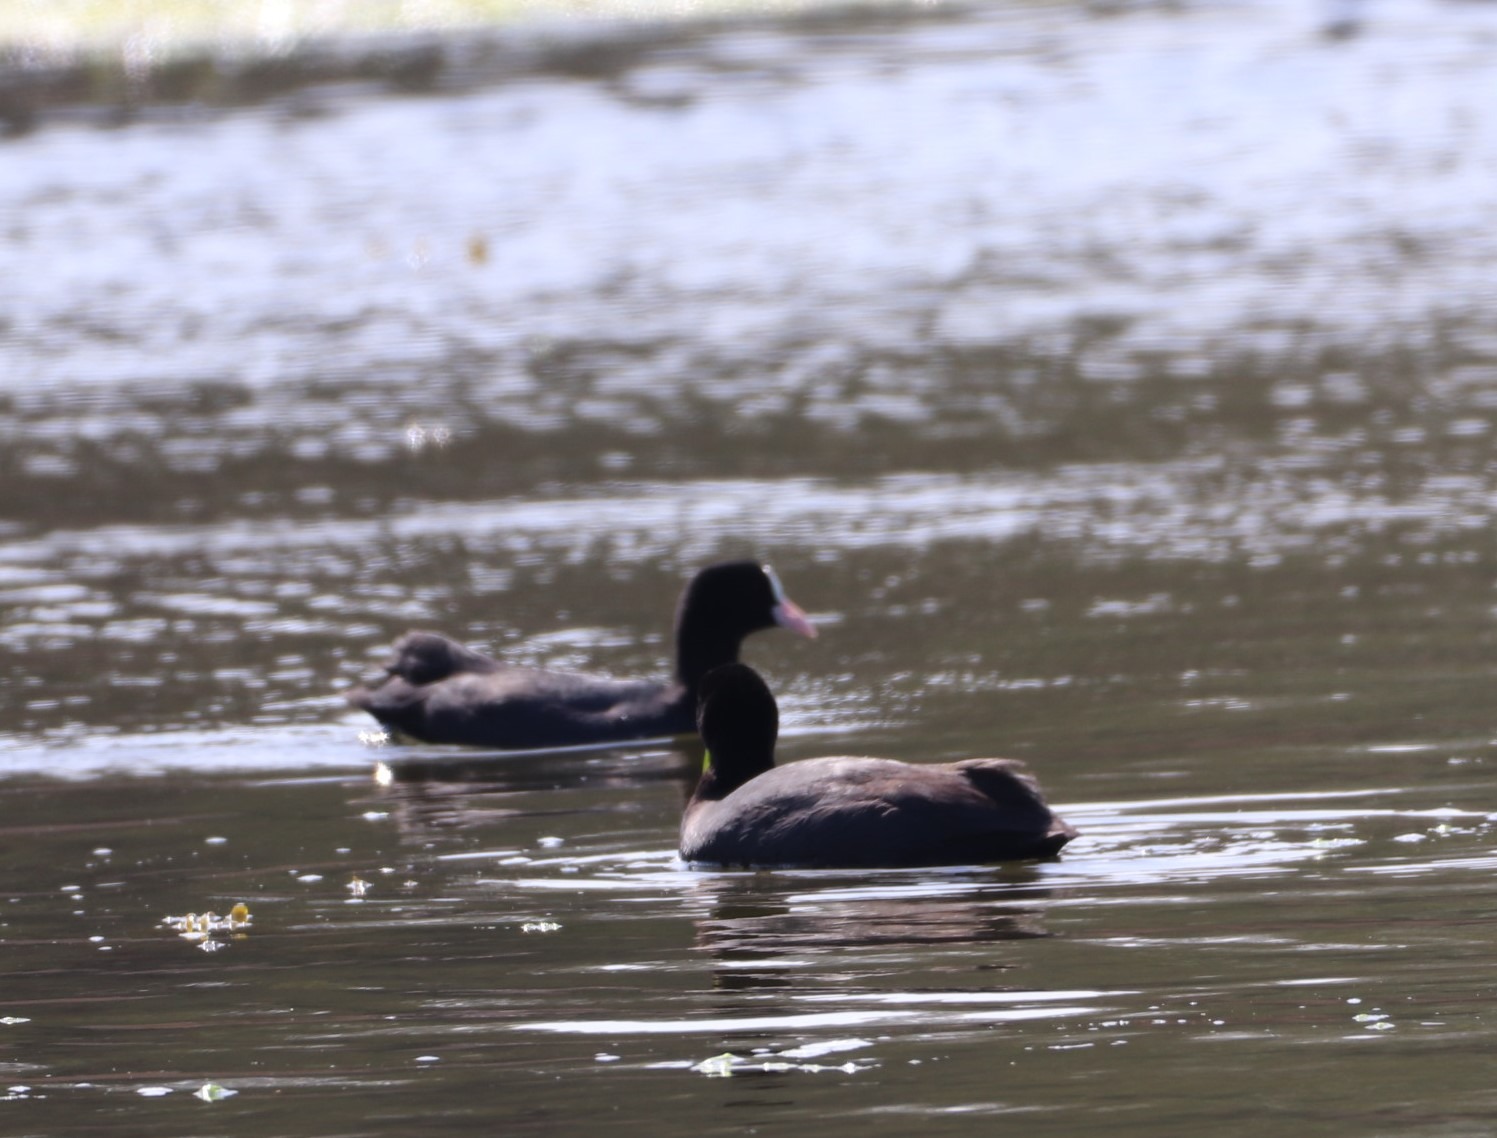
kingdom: Animalia
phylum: Chordata
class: Aves
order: Gruiformes
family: Rallidae
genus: Fulica
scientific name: Fulica atra
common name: Blishøne
